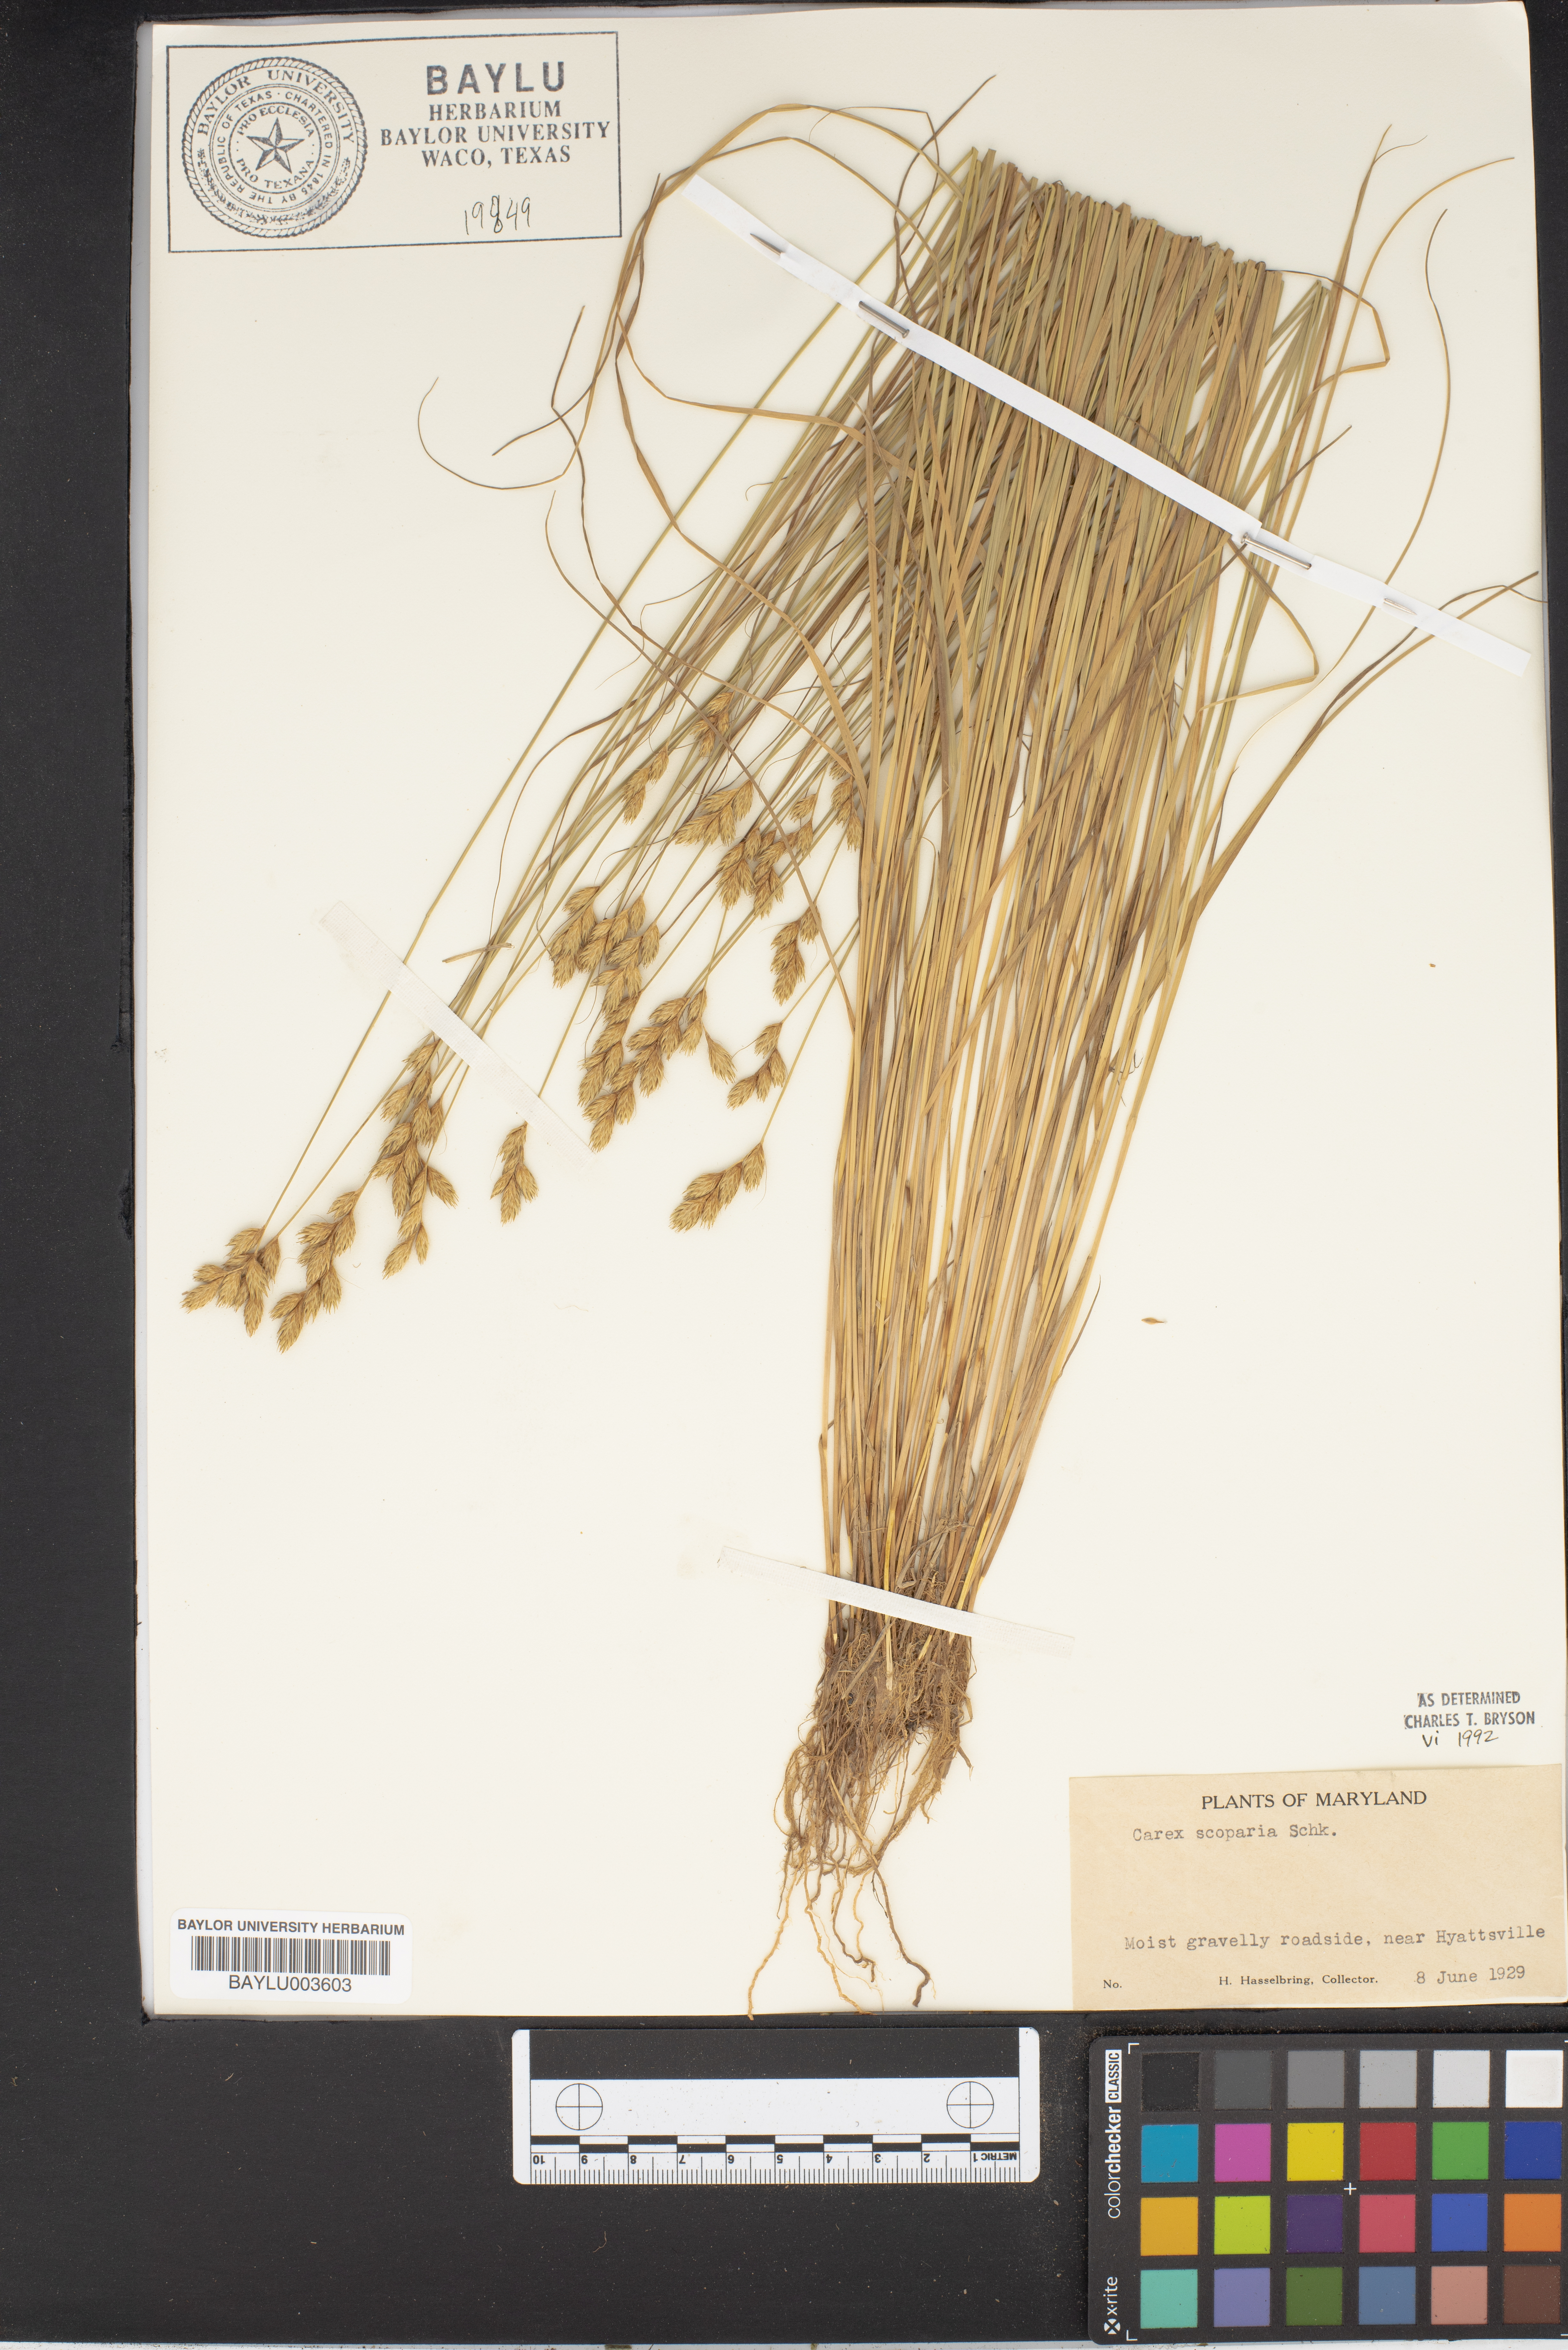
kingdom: Plantae
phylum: Tracheophyta
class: Liliopsida
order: Poales
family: Cyperaceae
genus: Carex
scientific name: Carex scoparia
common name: Broom sedge
